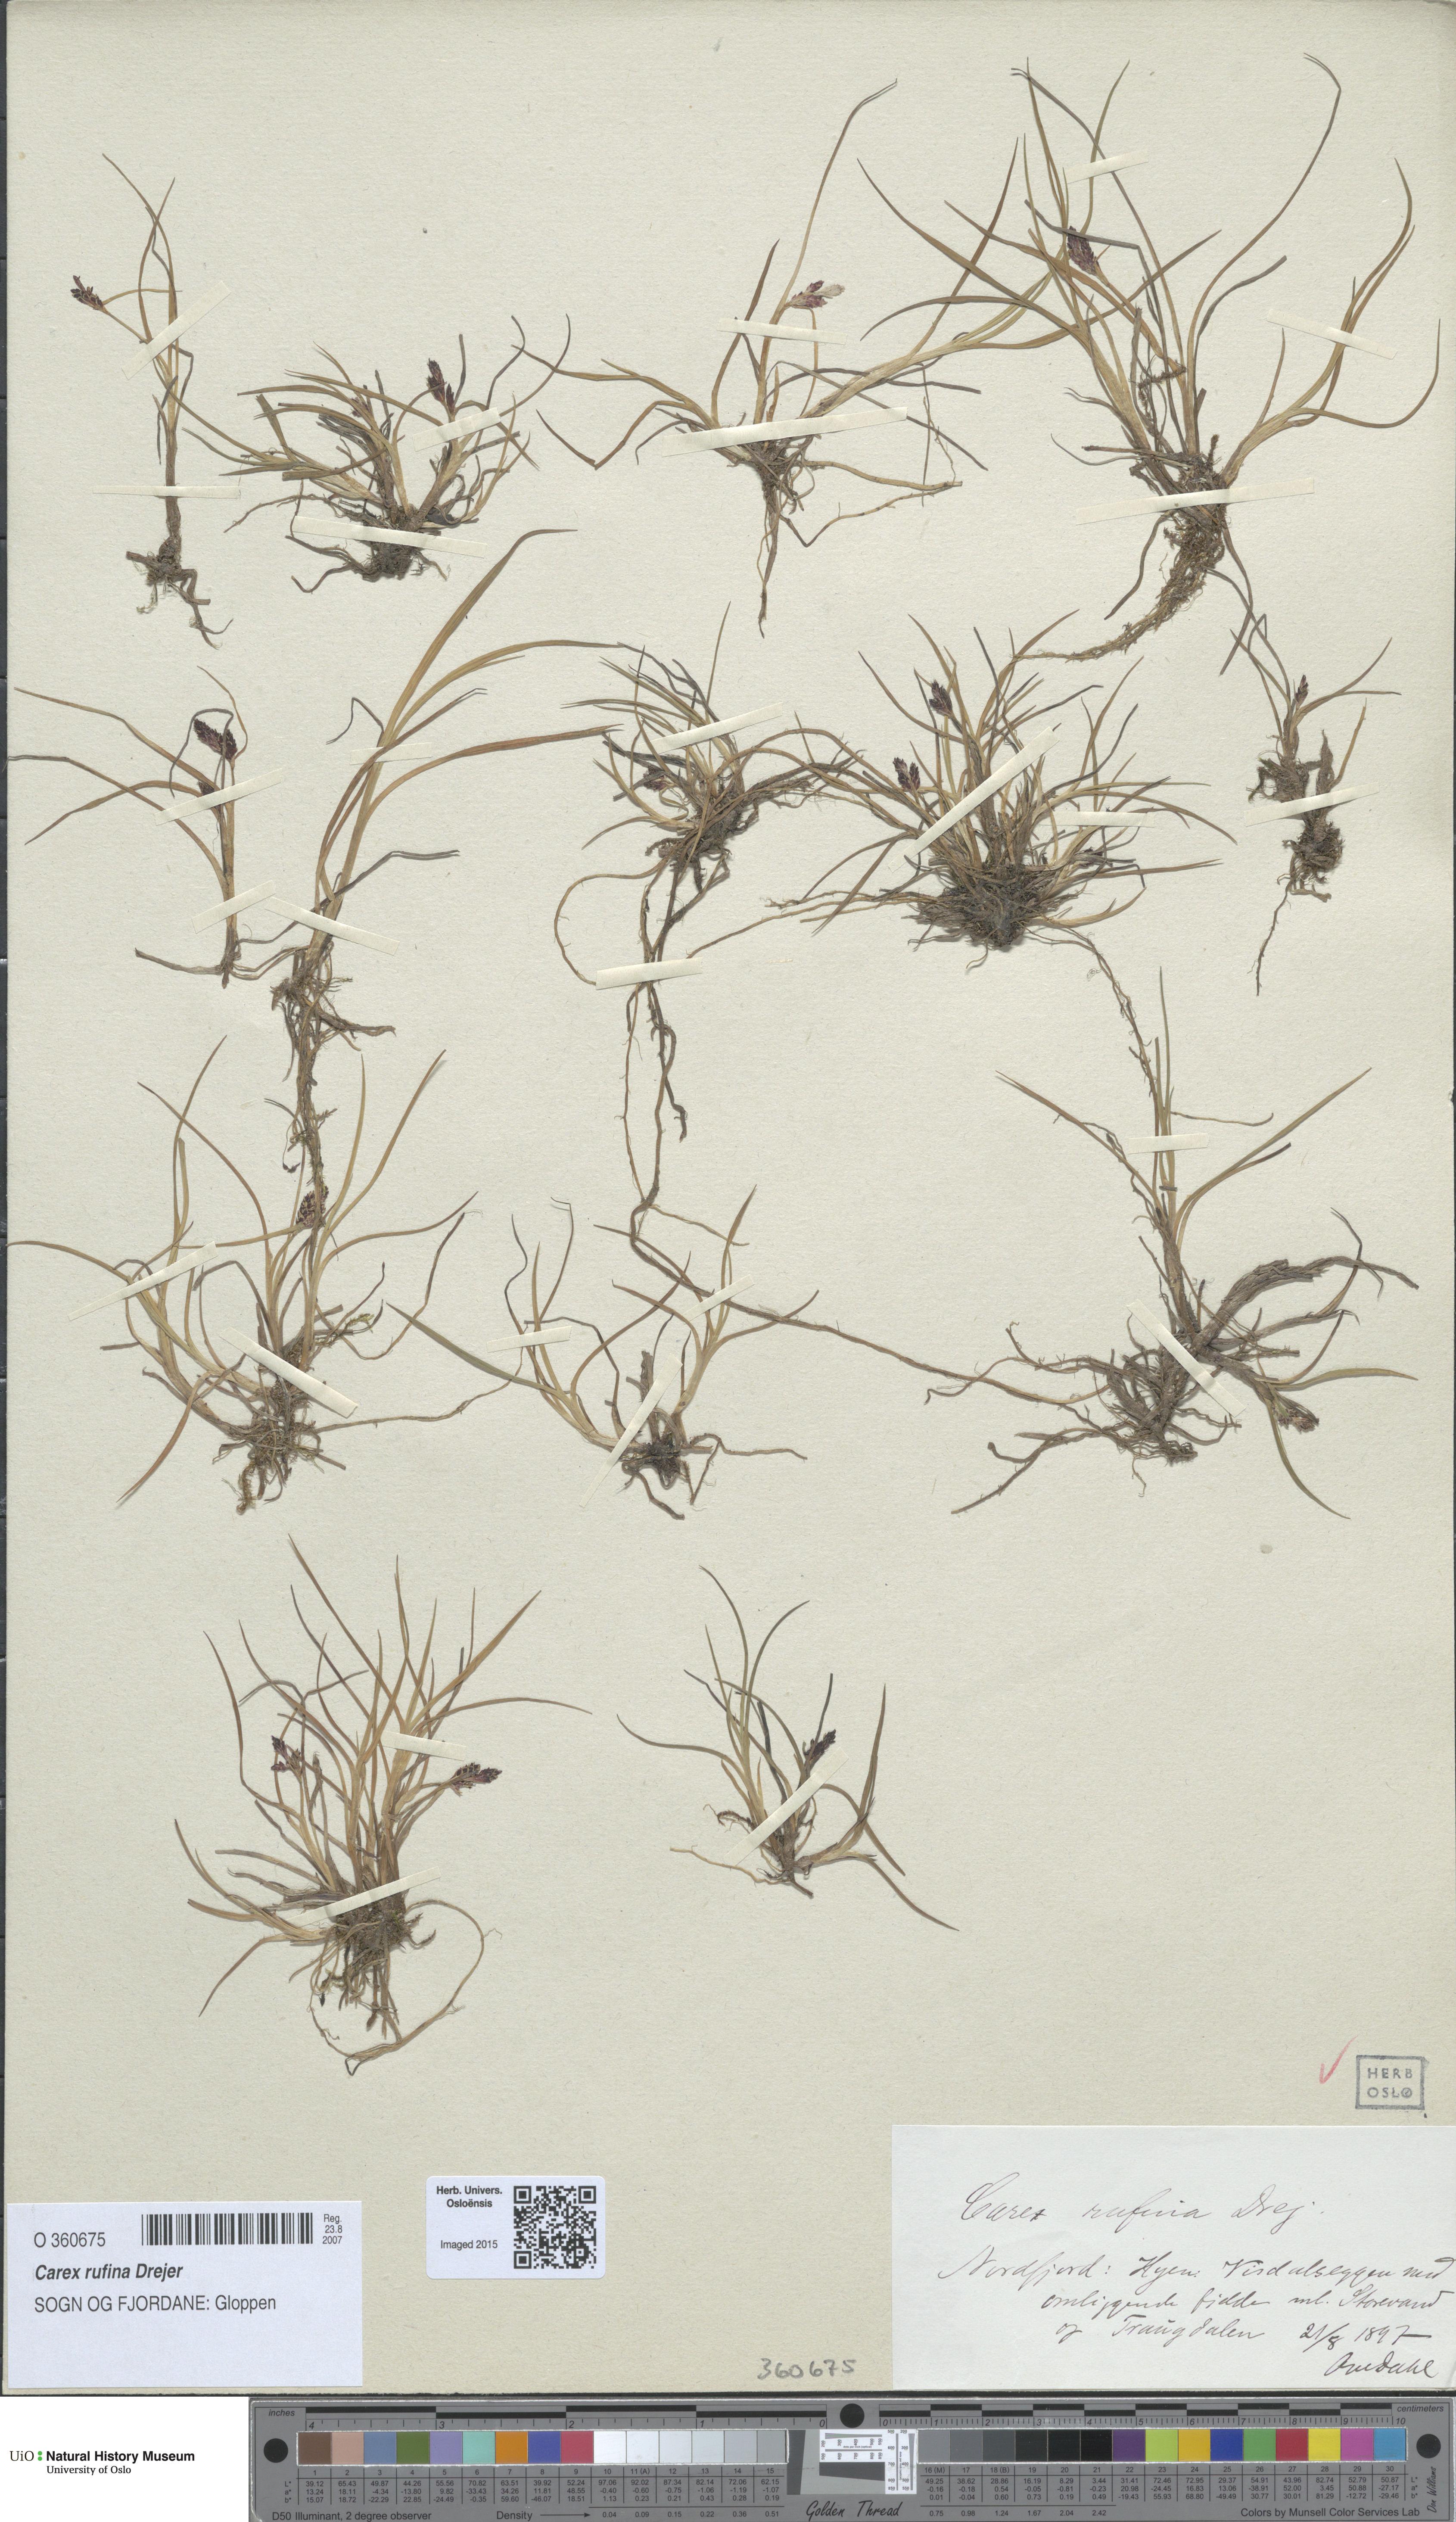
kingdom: Plantae
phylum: Tracheophyta
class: Liliopsida
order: Poales
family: Cyperaceae
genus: Carex
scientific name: Carex rufina
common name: Reddish sedge
